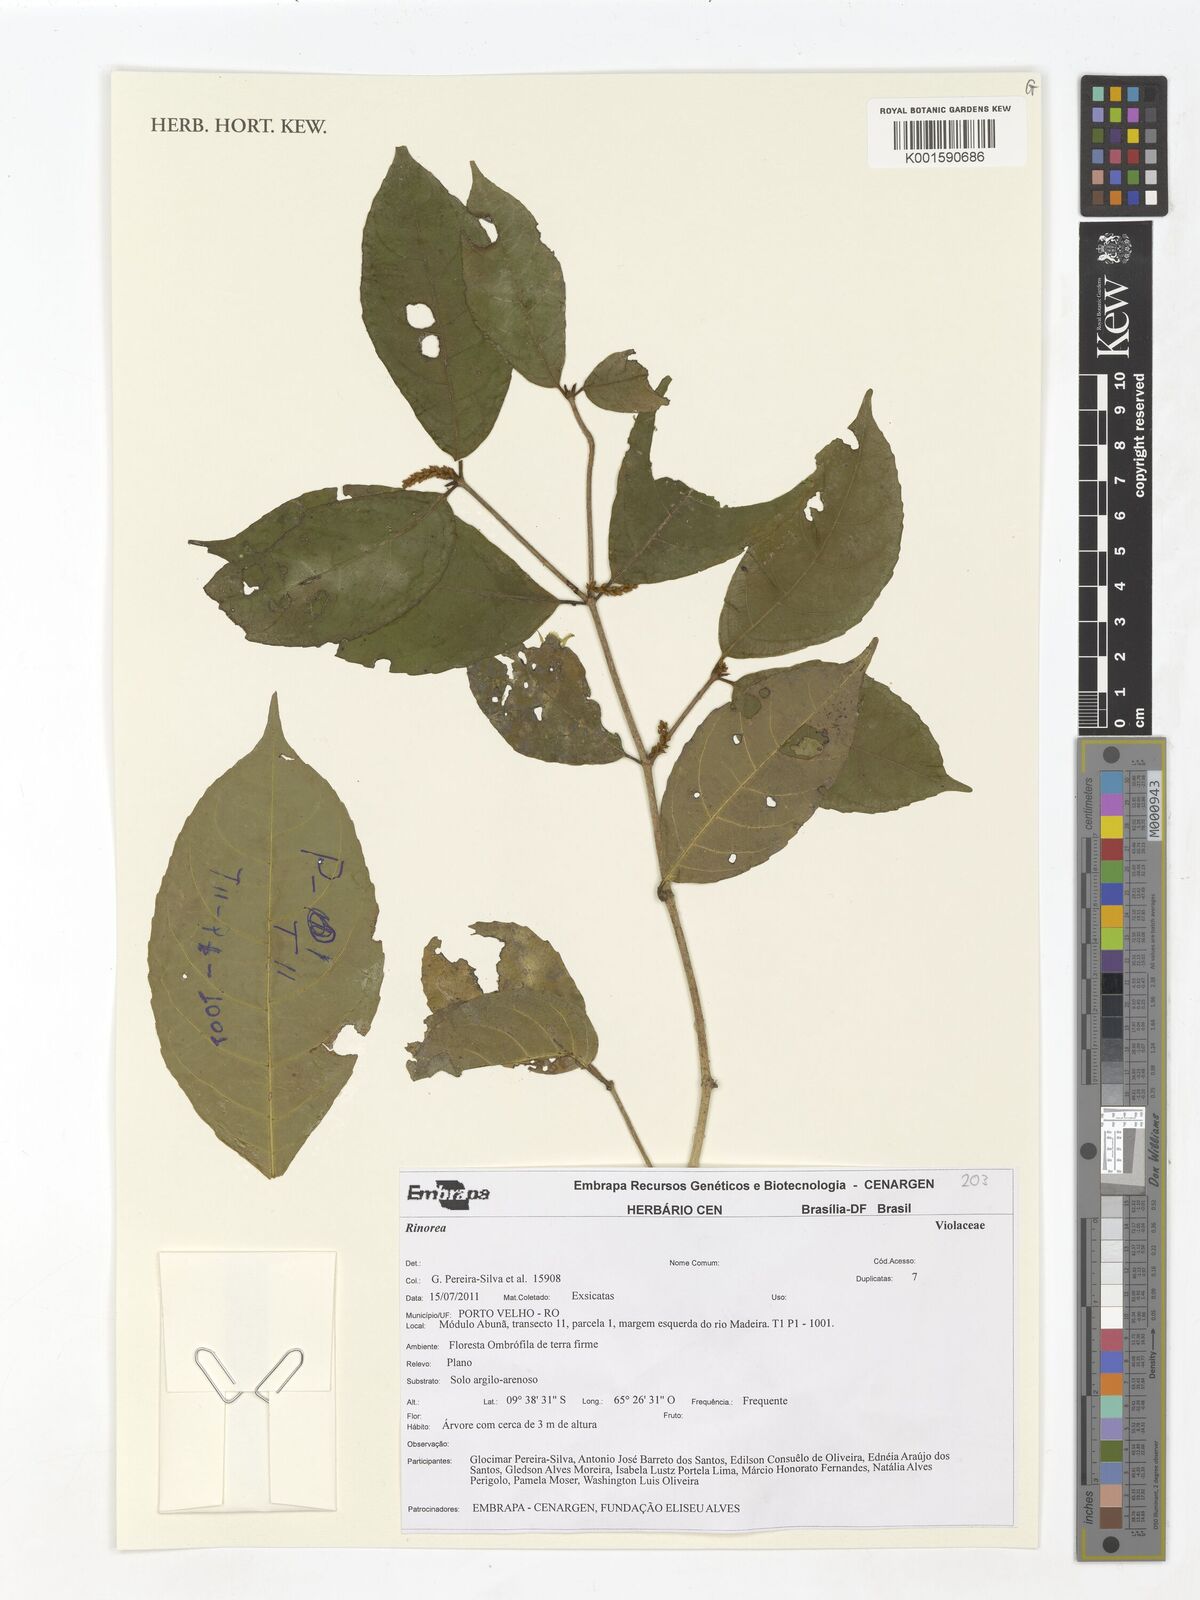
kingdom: Plantae
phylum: Tracheophyta
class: Magnoliopsida
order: Malpighiales
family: Violaceae
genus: Rinorea
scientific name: Rinorea
